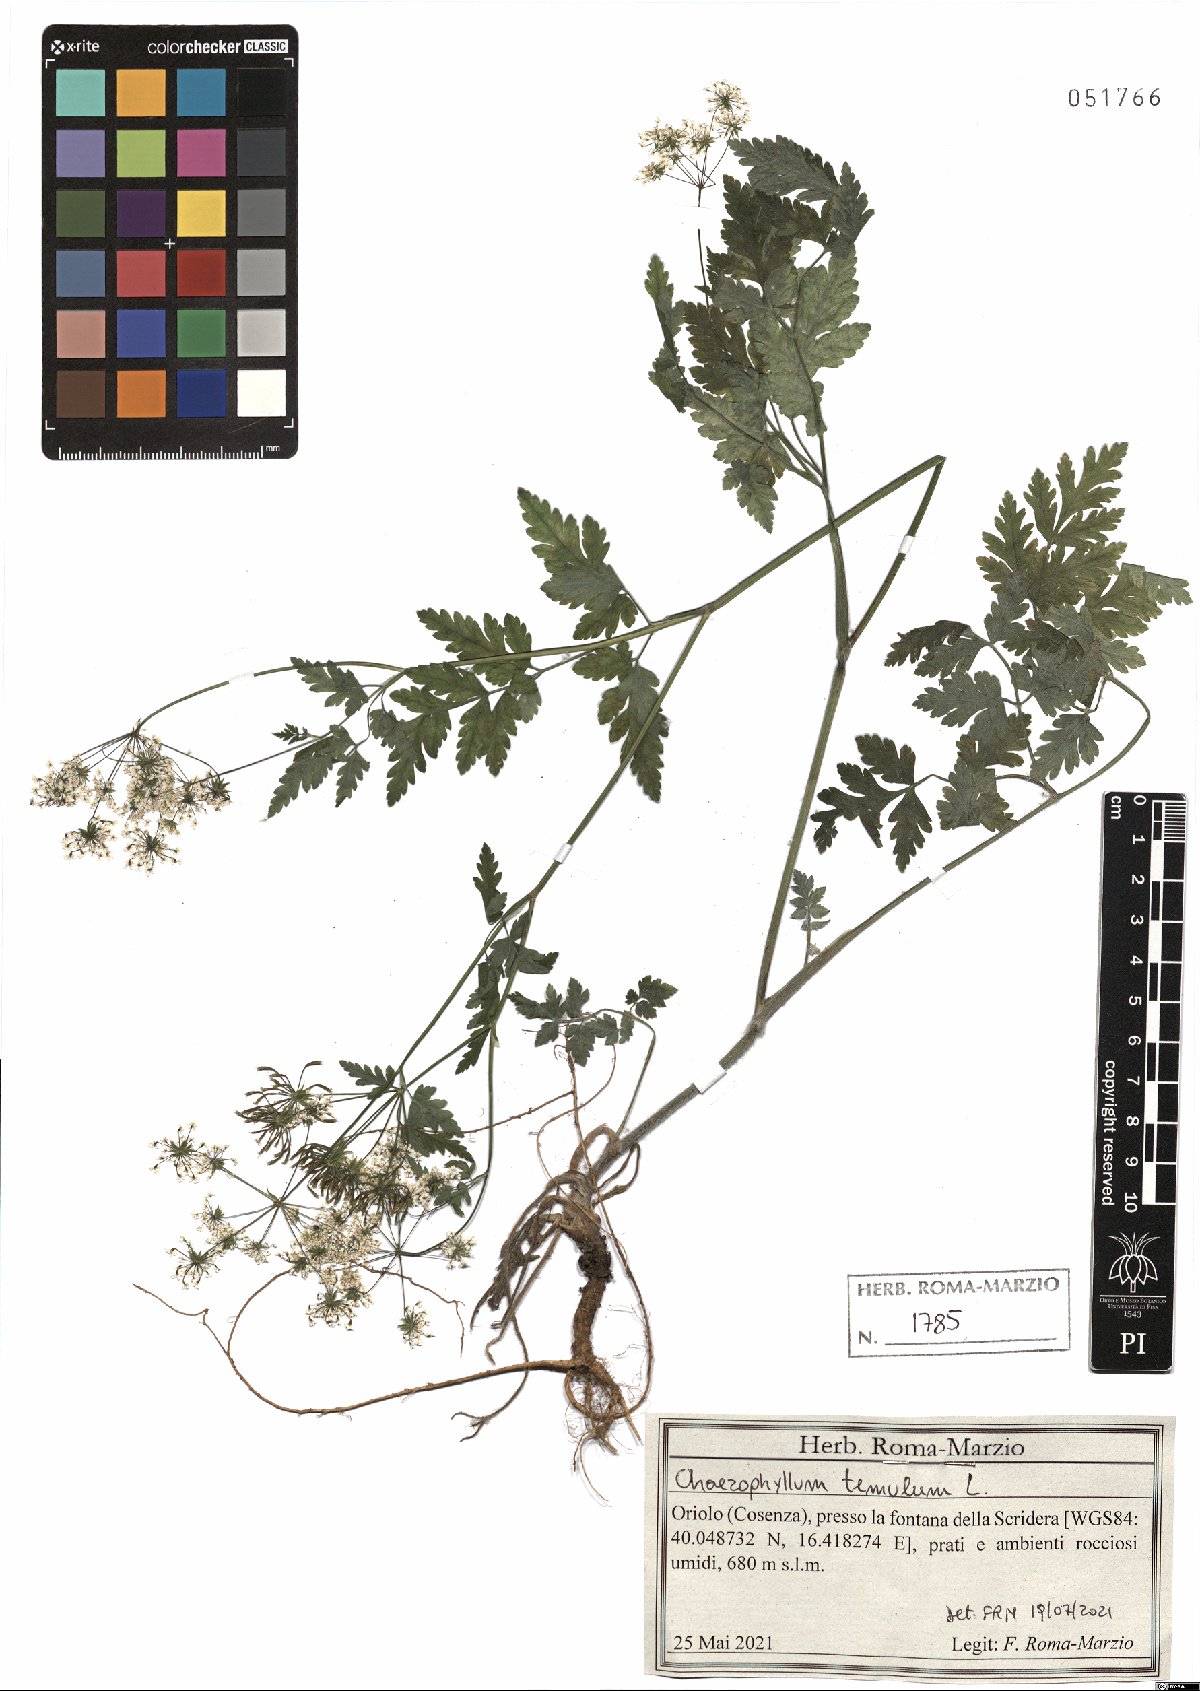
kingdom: Plantae
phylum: Tracheophyta
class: Magnoliopsida
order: Apiales
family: Apiaceae
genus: Chaerophyllum
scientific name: Chaerophyllum temulum
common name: Rough chervil
